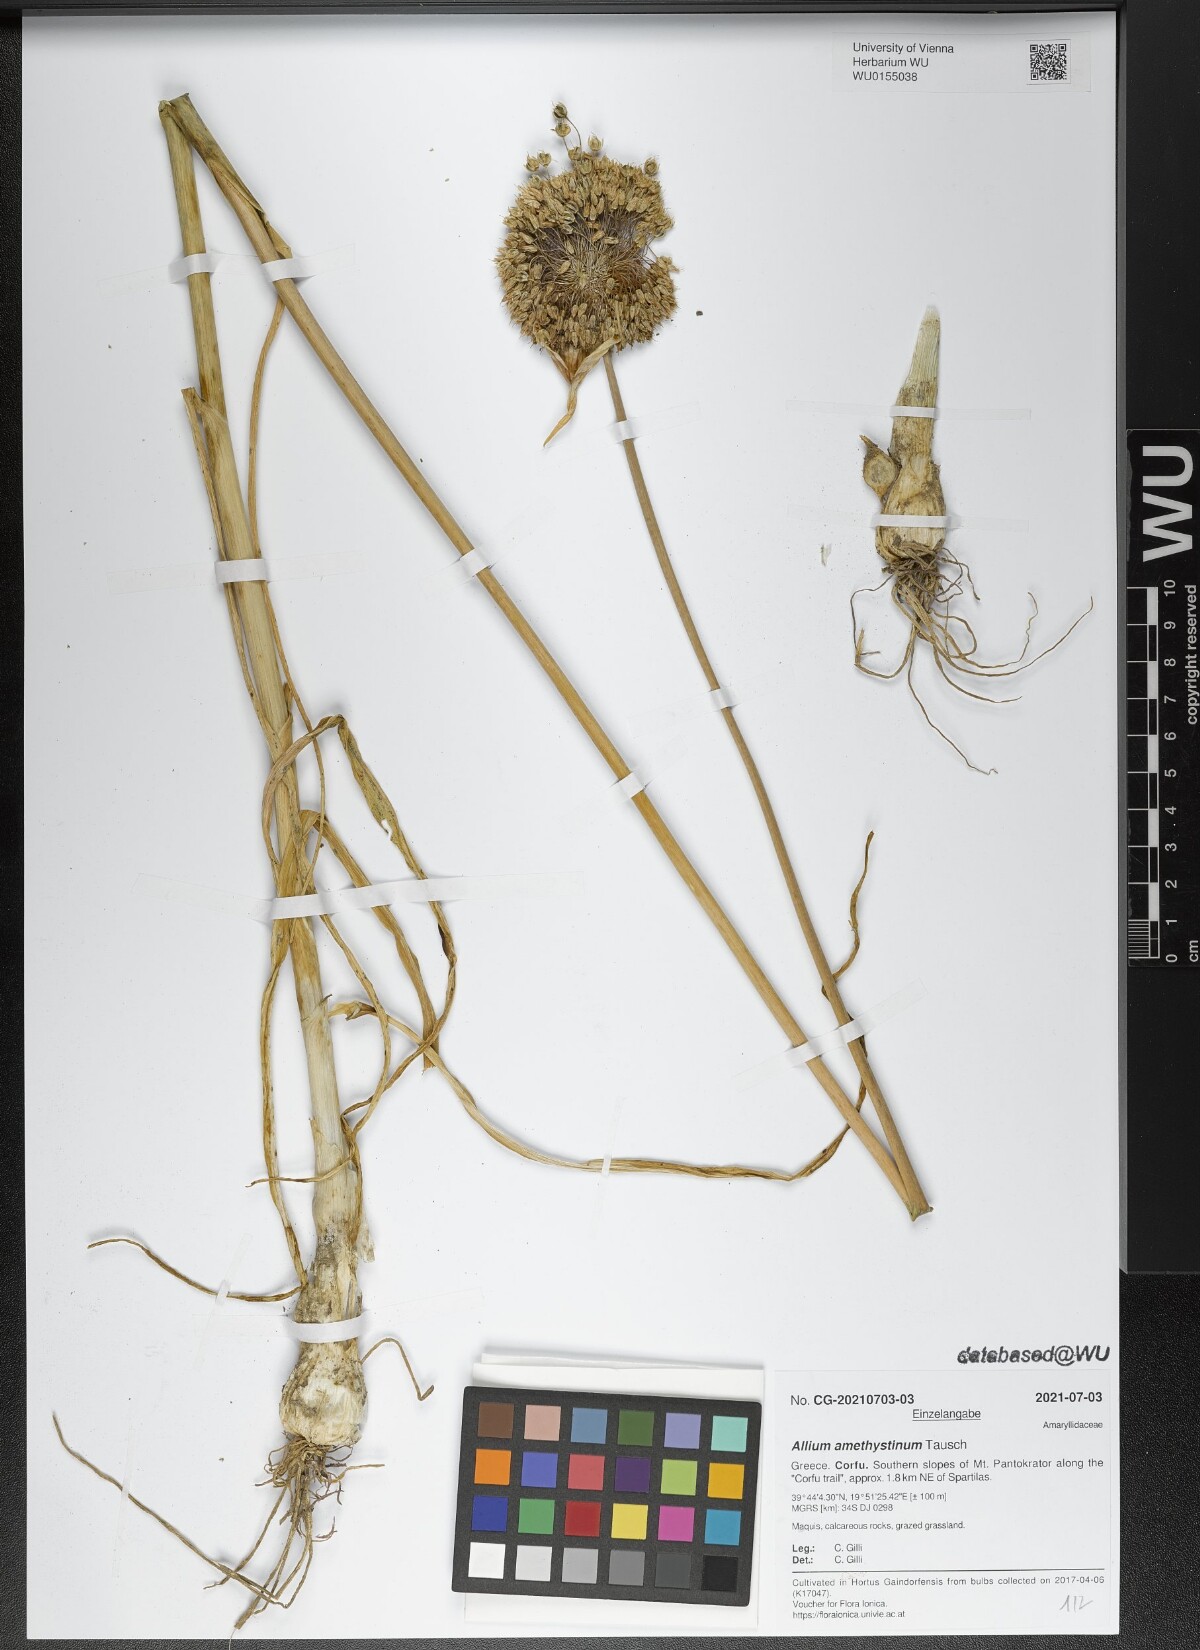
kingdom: Plantae
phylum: Tracheophyta
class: Liliopsida
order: Asparagales
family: Amaryllidaceae
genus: Allium
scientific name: Allium amethystinum
